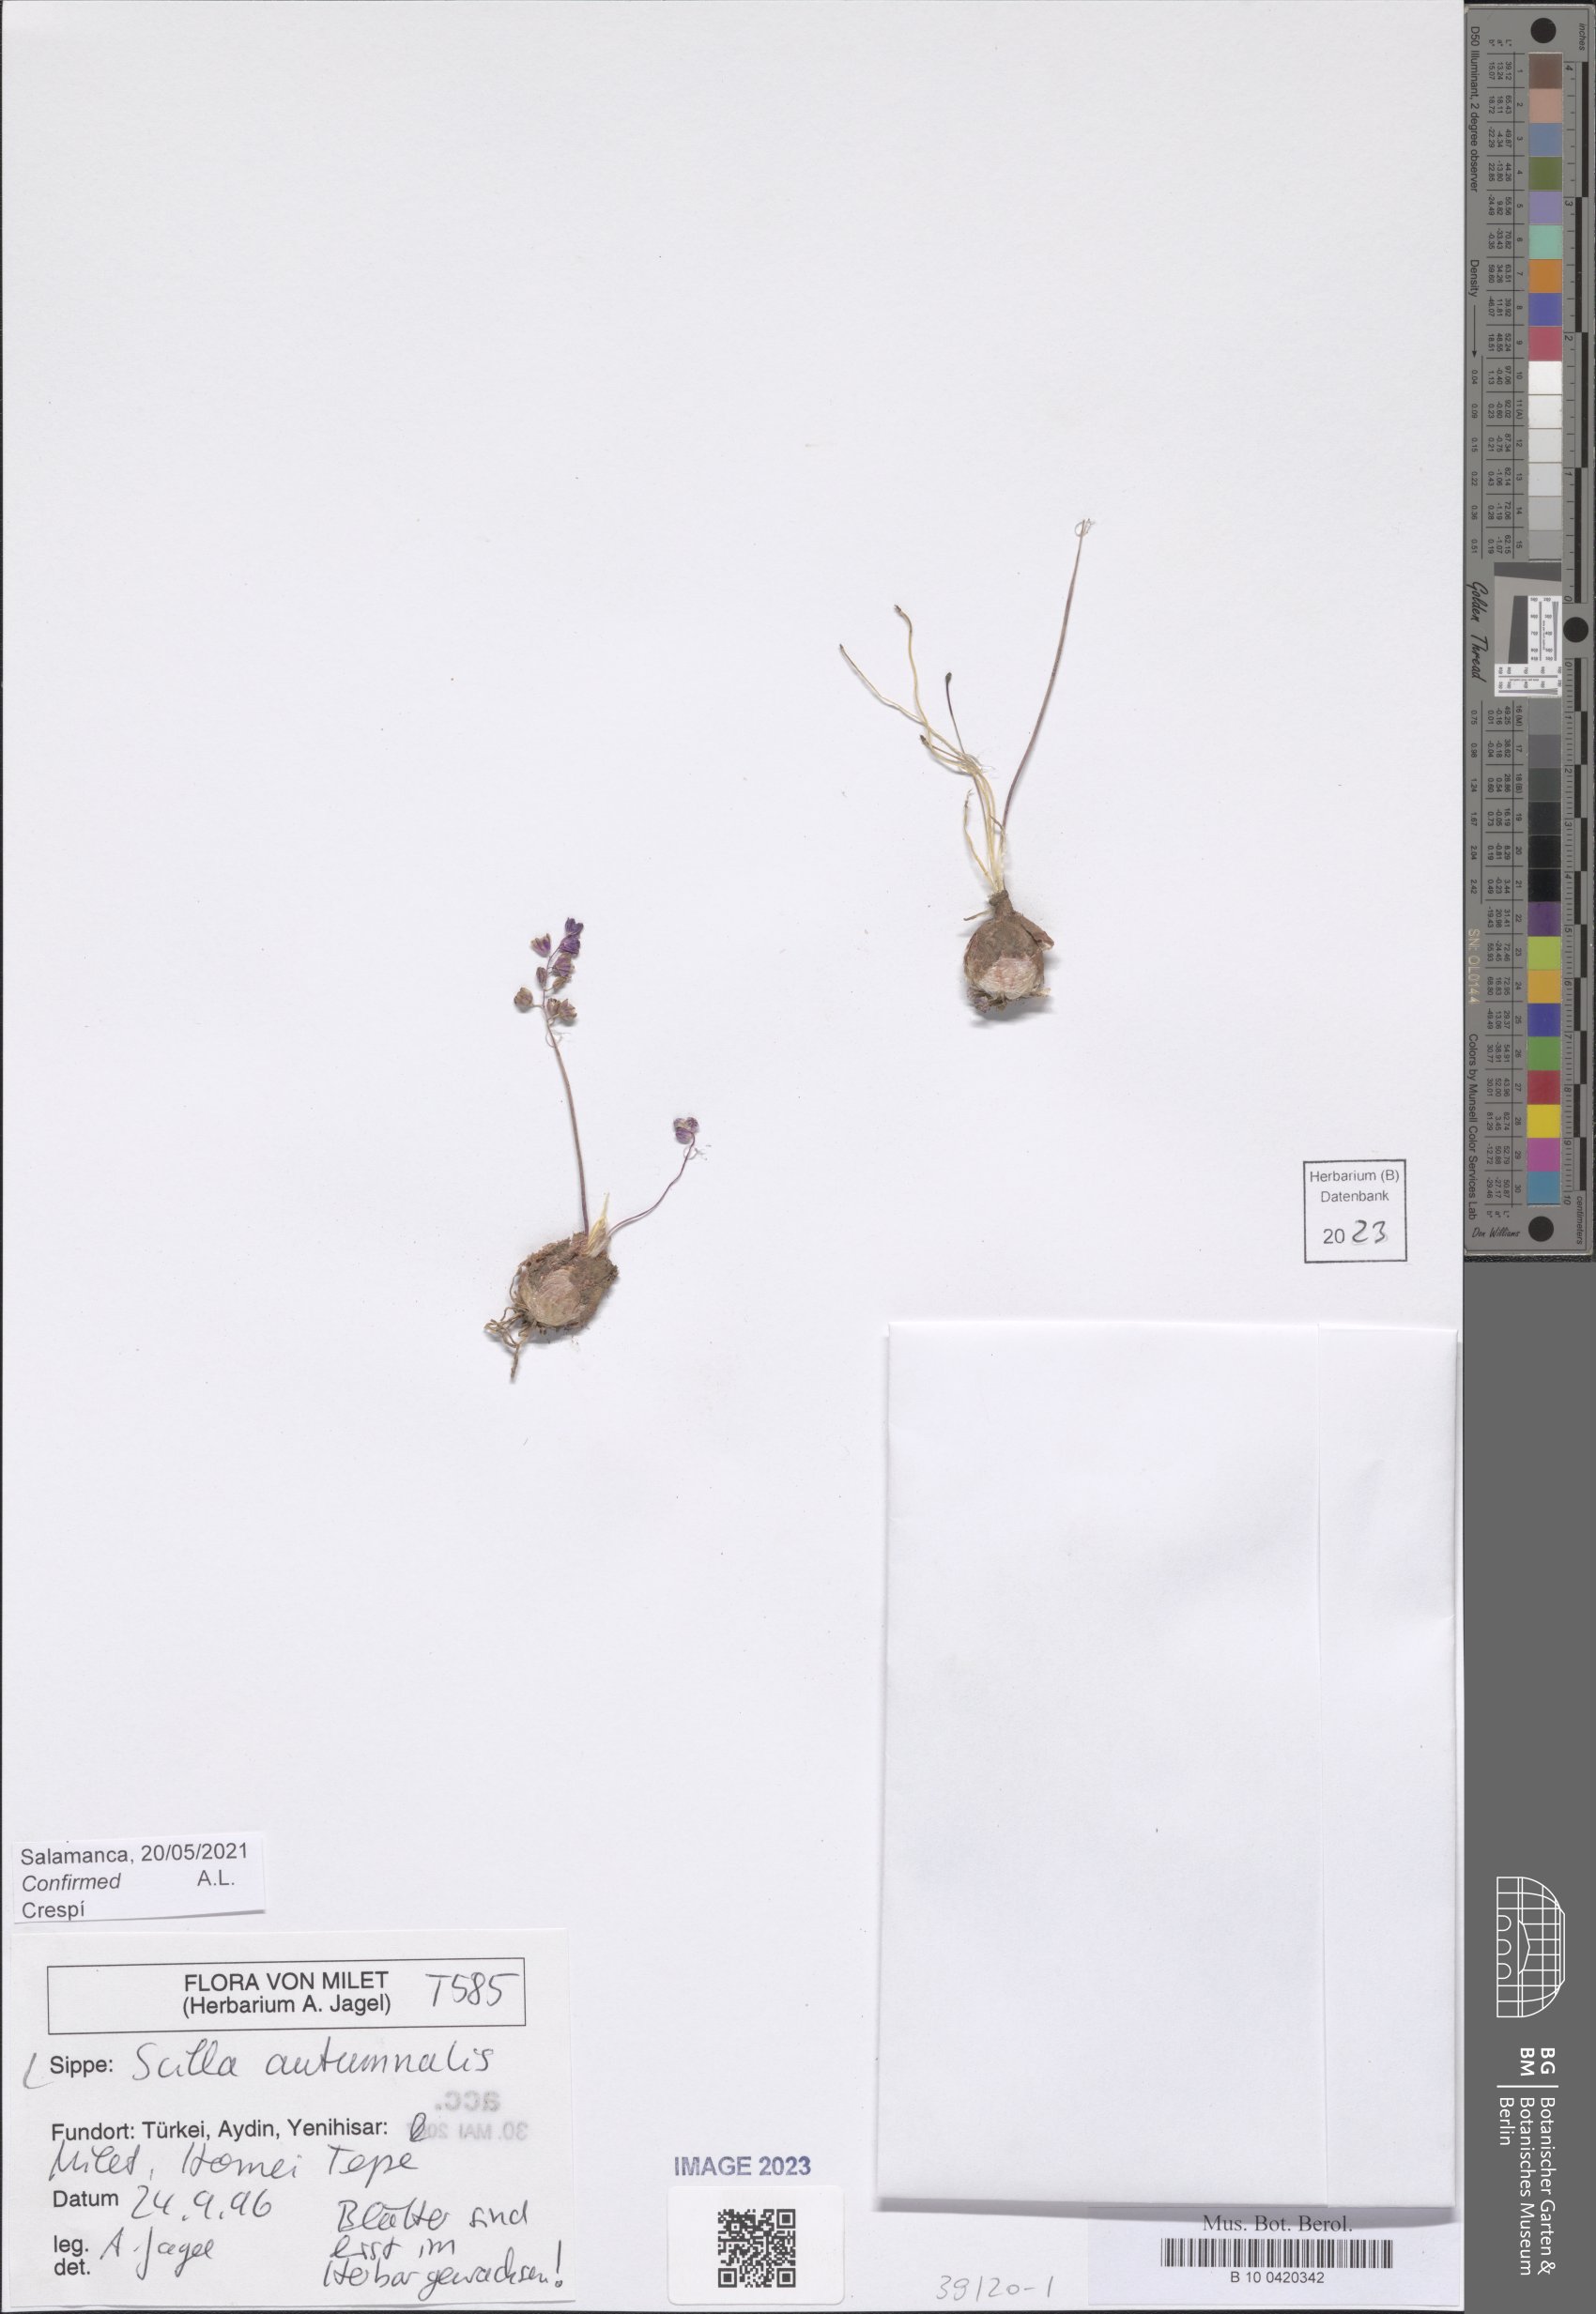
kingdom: Plantae
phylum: Tracheophyta
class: Liliopsida
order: Asparagales
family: Asparagaceae
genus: Prospero
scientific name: Prospero autumnale
